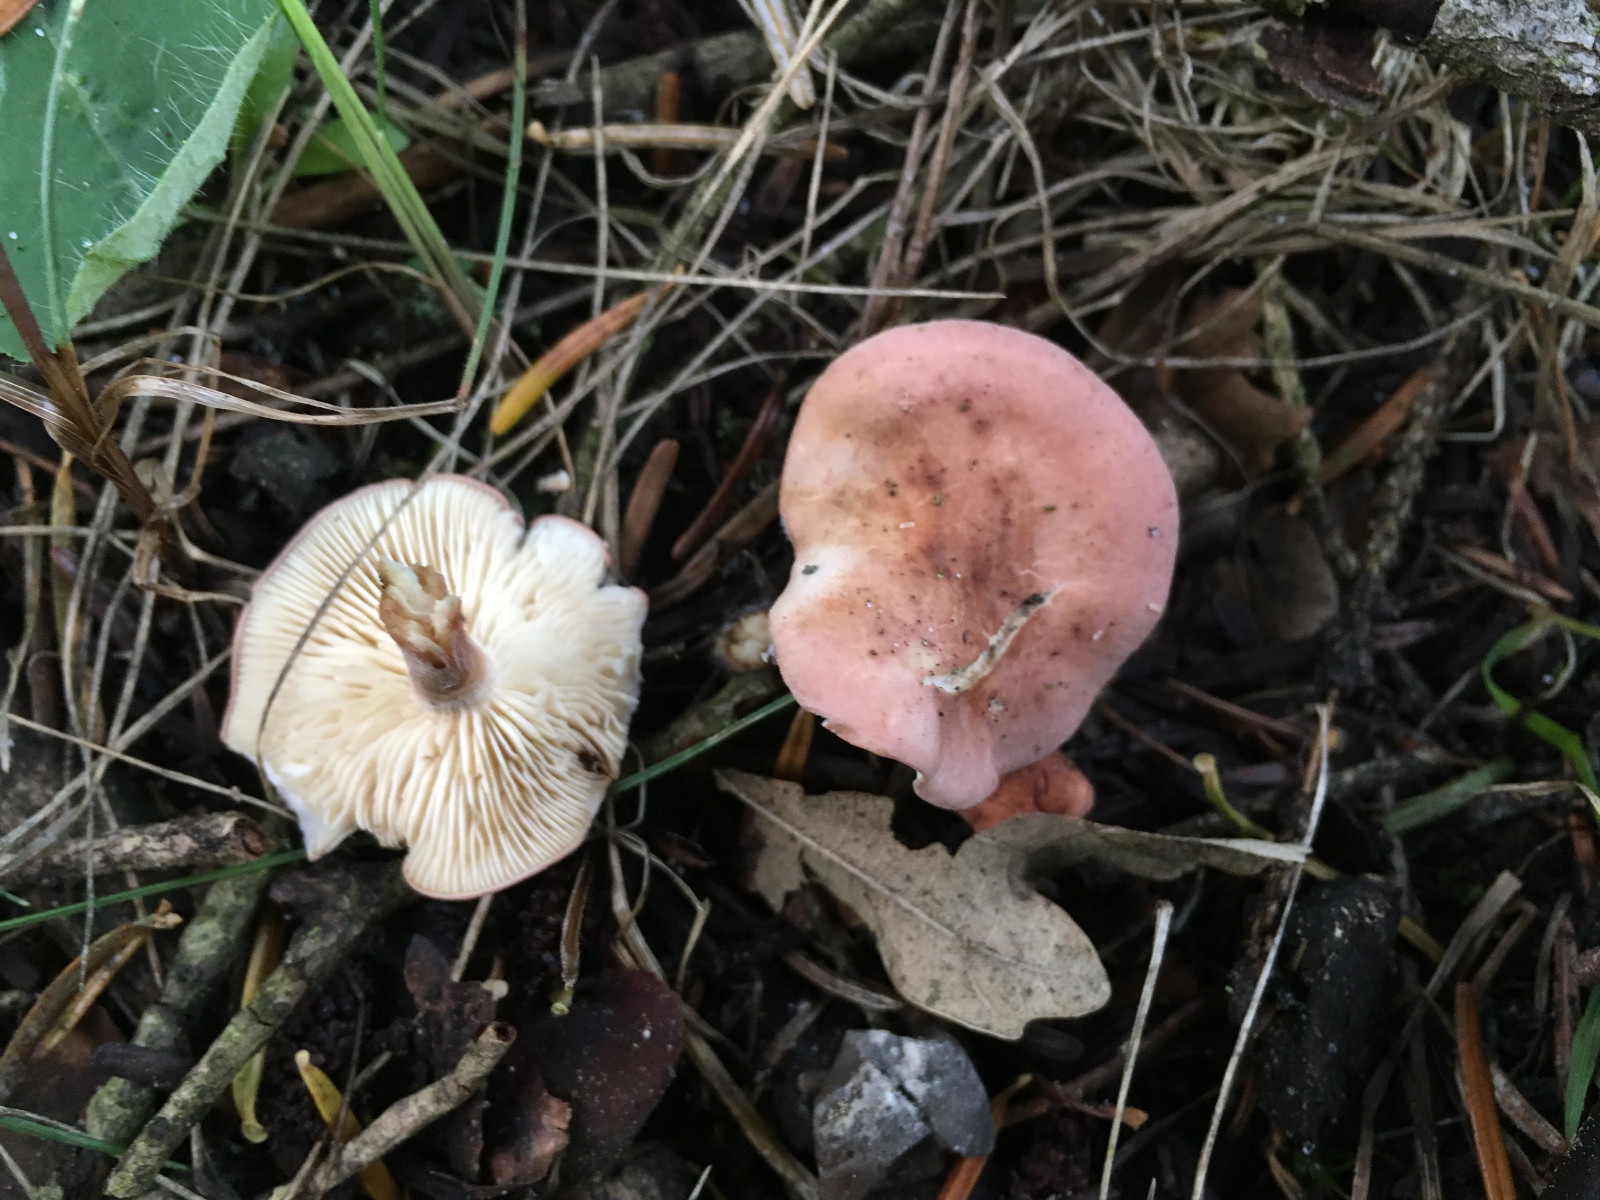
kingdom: Fungi
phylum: Basidiomycota
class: Agaricomycetes
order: Agaricales
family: Lyophyllaceae
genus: Calocybe
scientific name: Calocybe carnea
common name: rosa fagerhat
